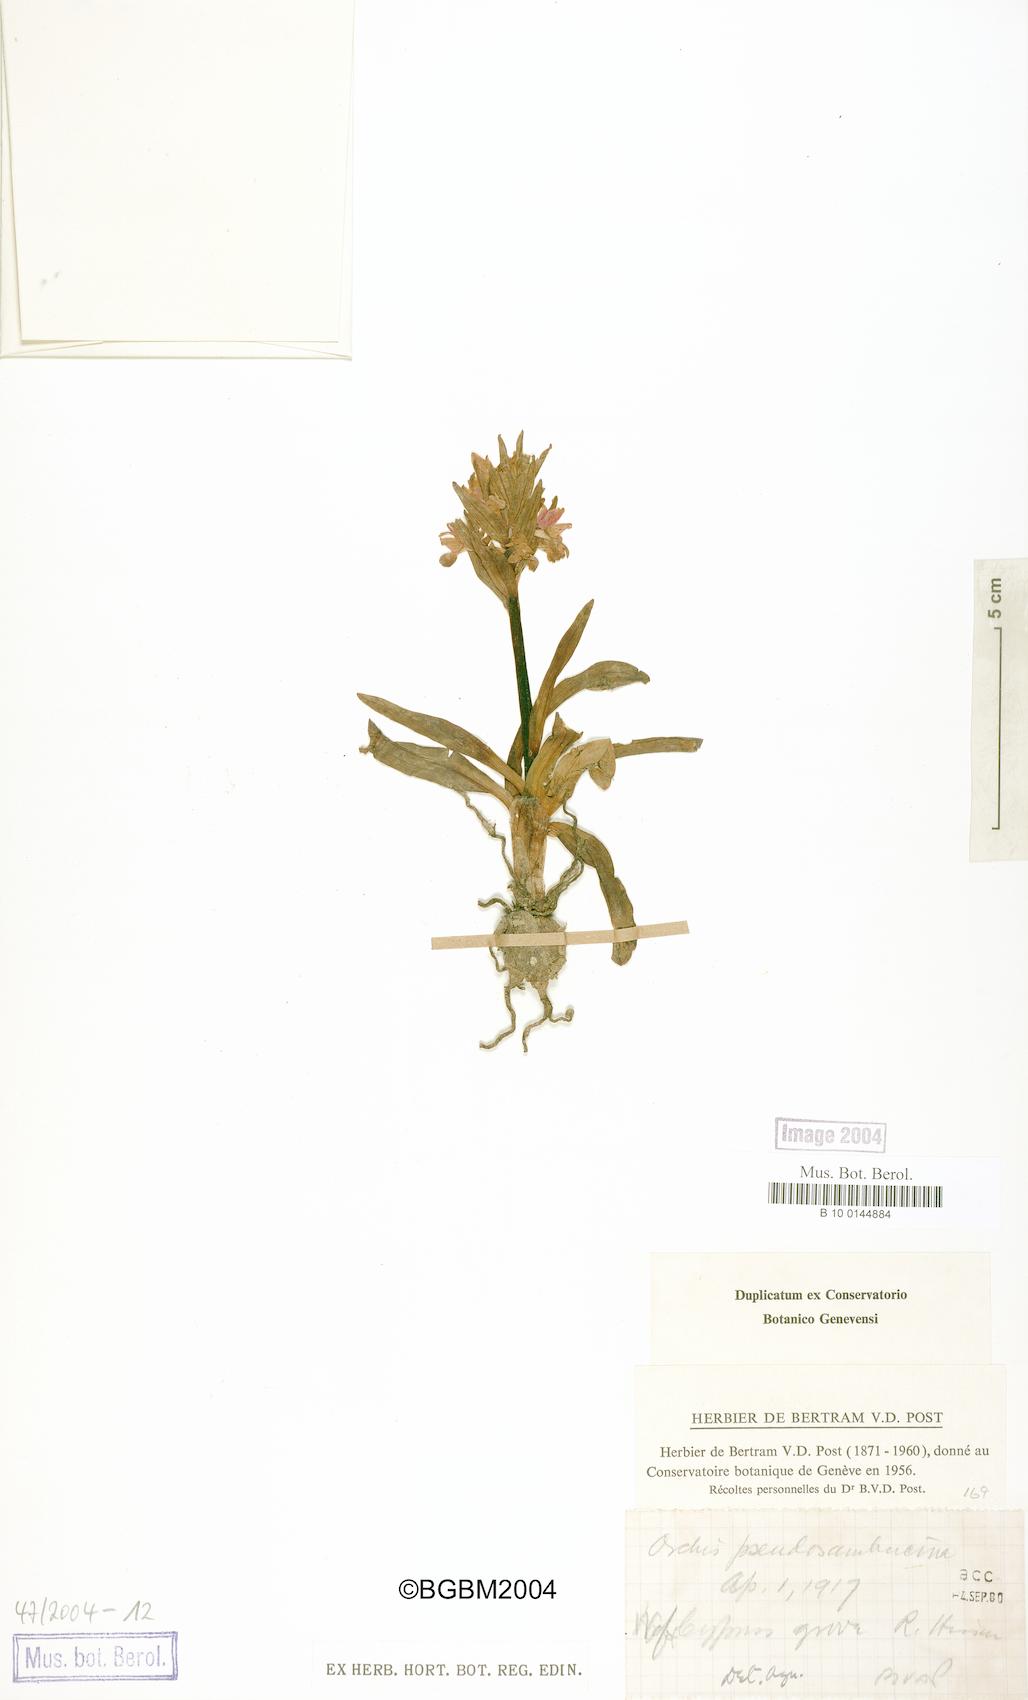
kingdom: Plantae
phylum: Tracheophyta
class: Liliopsida
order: Asparagales
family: Orchidaceae
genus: Dactylorhiza
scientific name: Dactylorhiza romana
